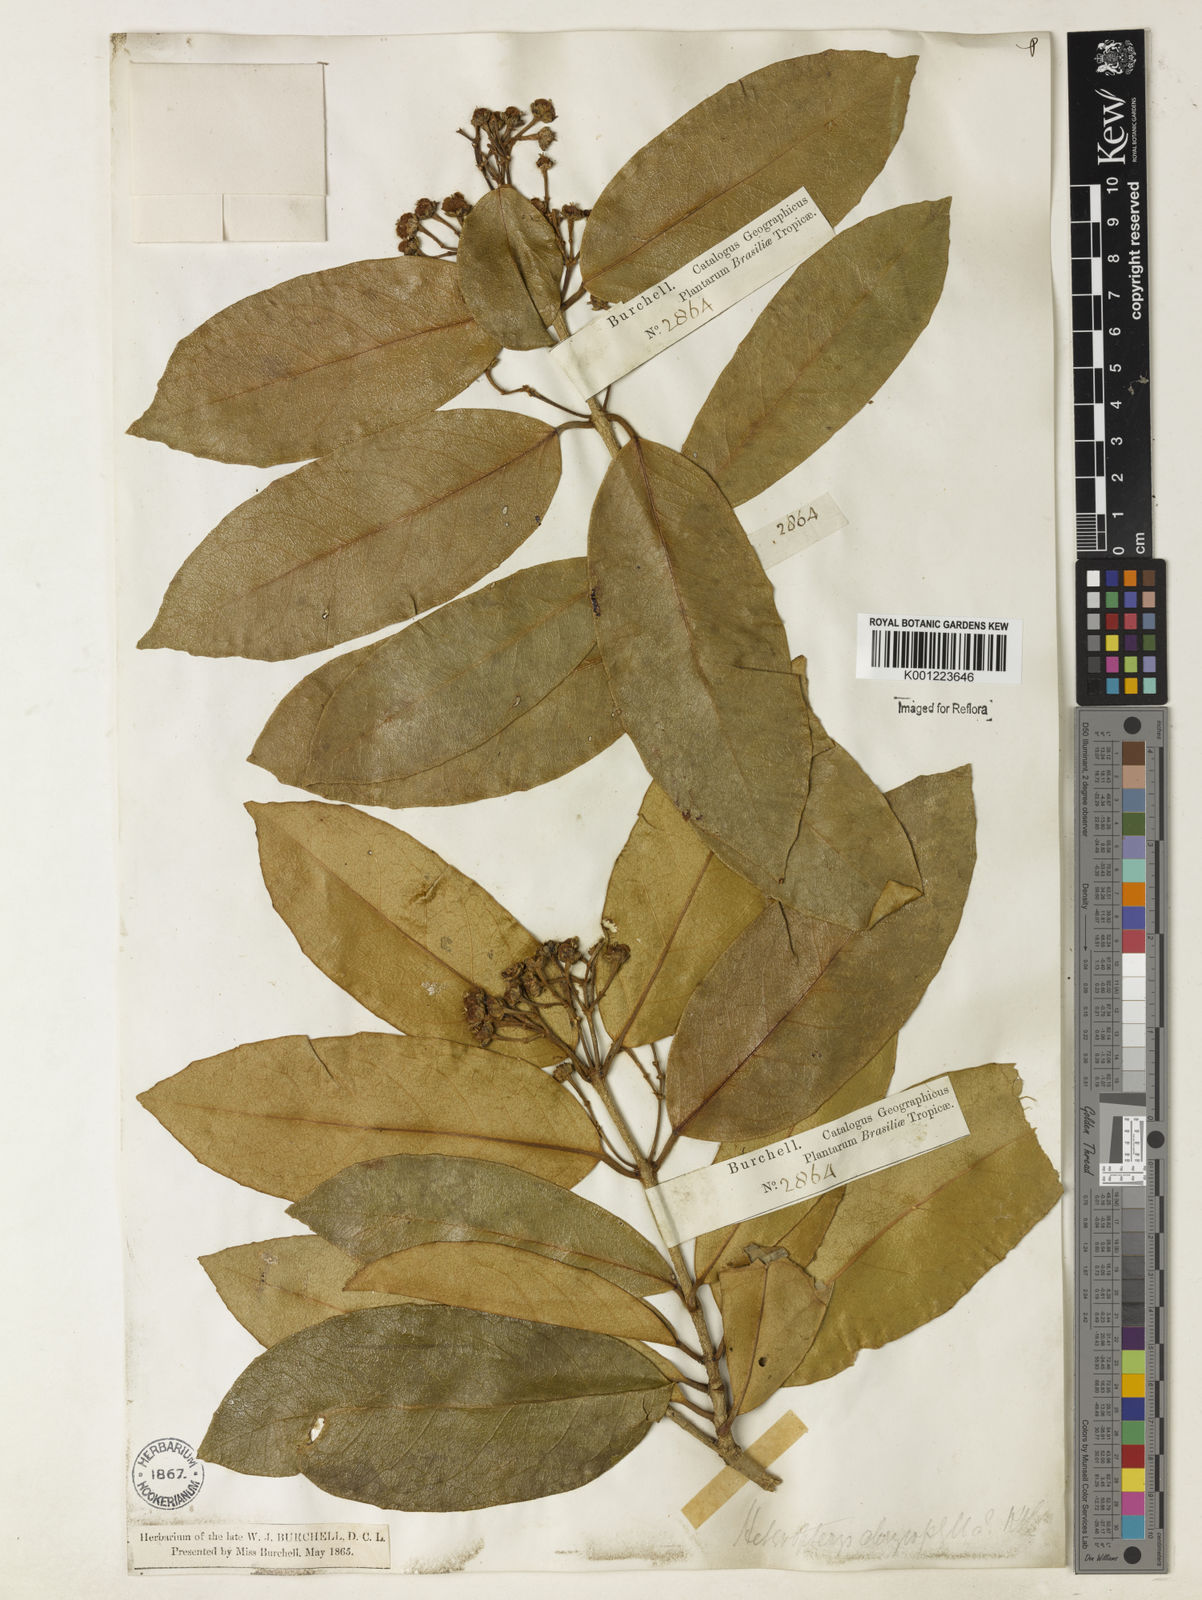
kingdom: Plantae
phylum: Tracheophyta
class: Magnoliopsida
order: Malpighiales
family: Malpighiaceae
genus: Heteropterys
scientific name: Heteropterys chrysophylla
